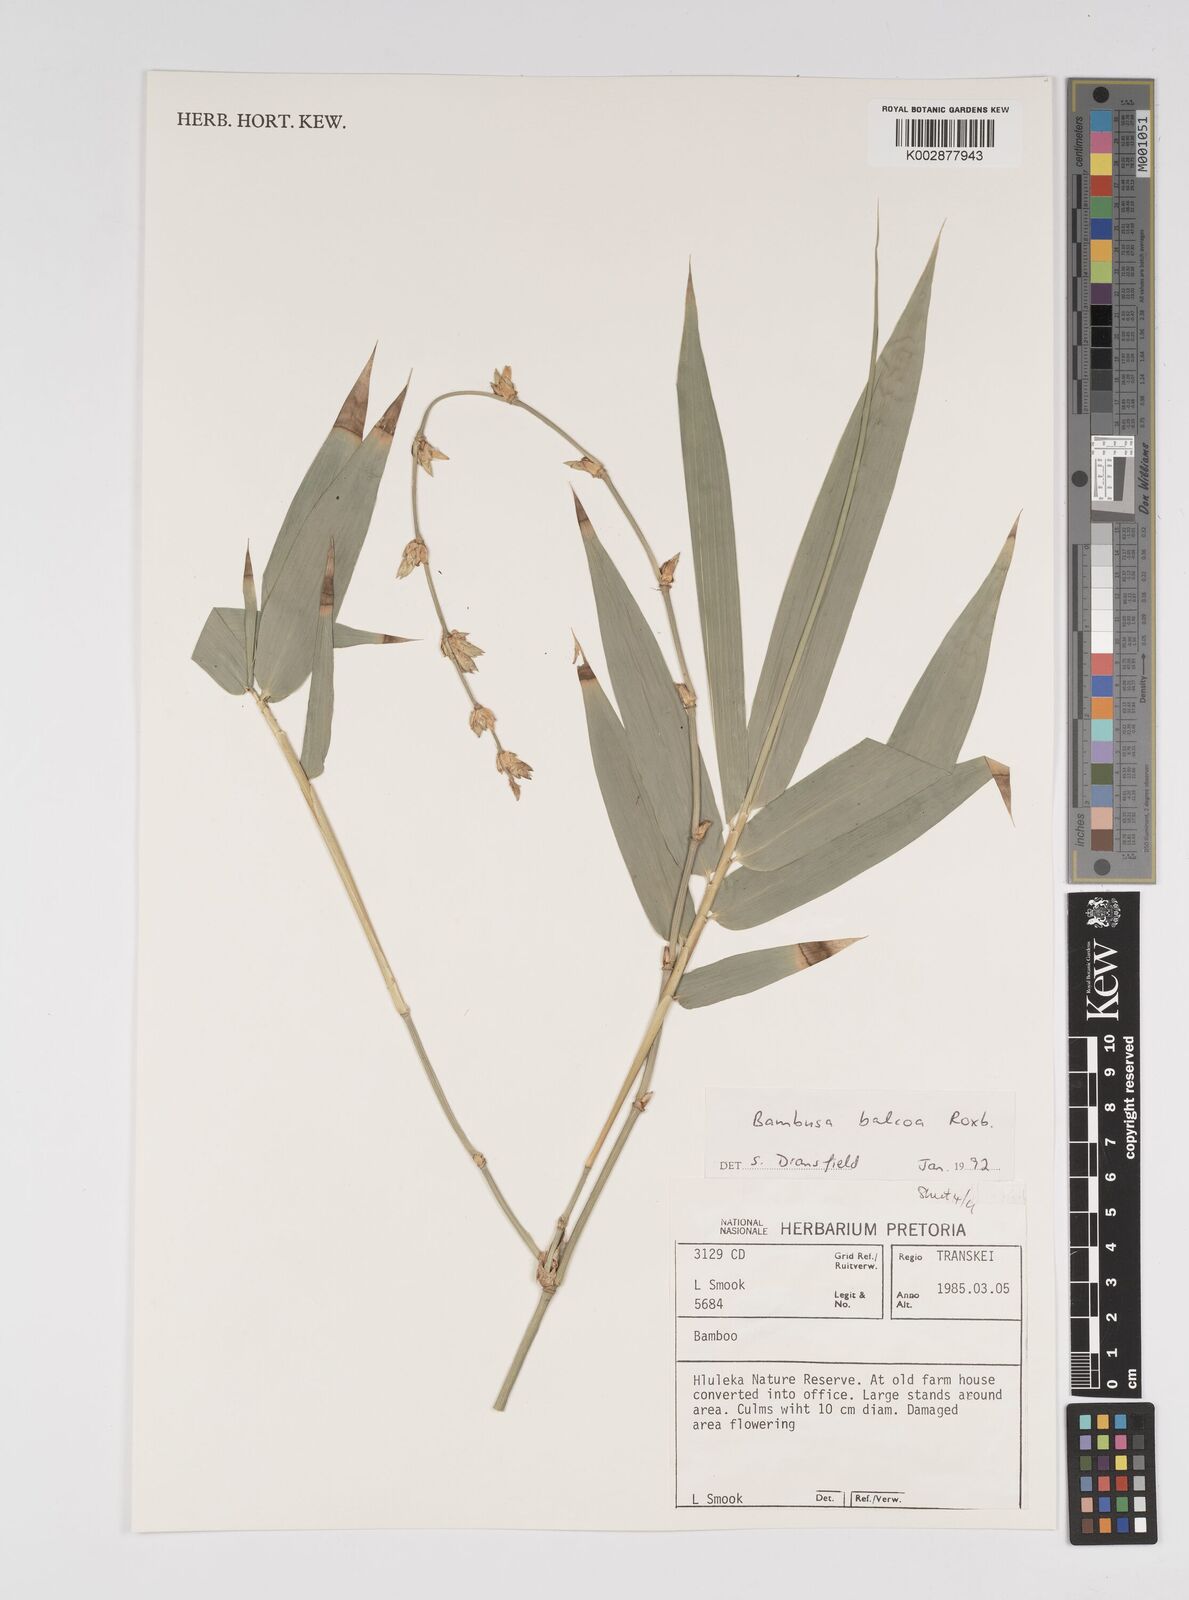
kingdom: Plantae
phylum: Tracheophyta
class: Liliopsida
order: Poales
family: Poaceae
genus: Bambusa
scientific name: Bambusa balcooa
